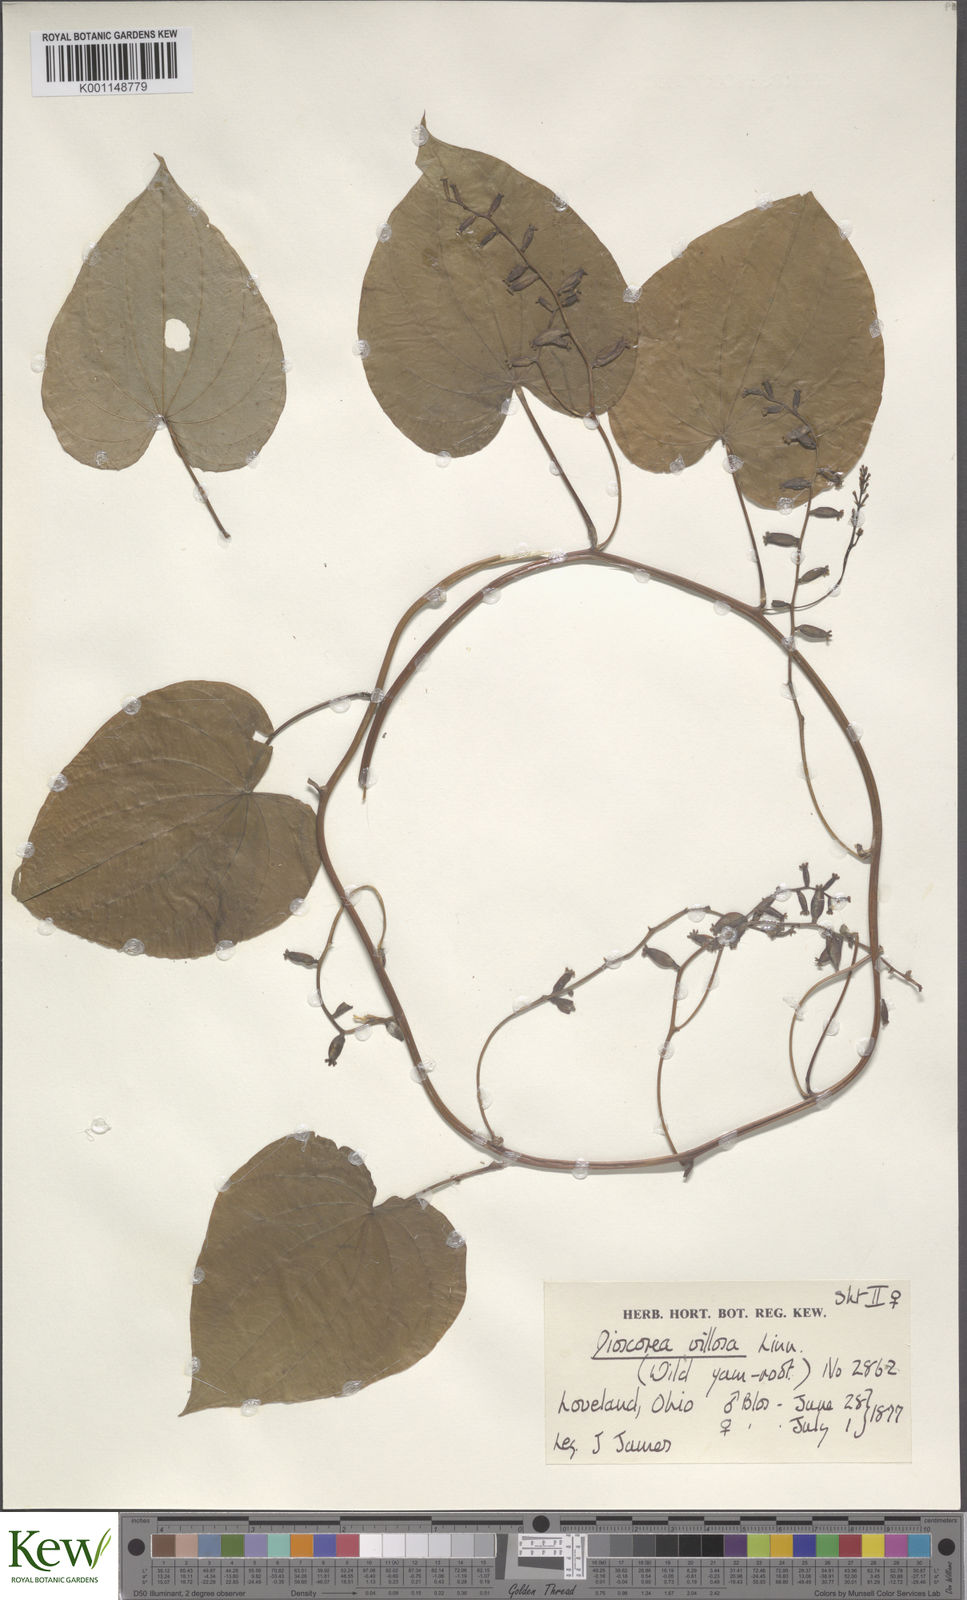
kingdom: Plantae
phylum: Tracheophyta
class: Liliopsida
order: Dioscoreales
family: Dioscoreaceae
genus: Dioscorea
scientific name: Dioscorea villosa
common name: Wild yam
